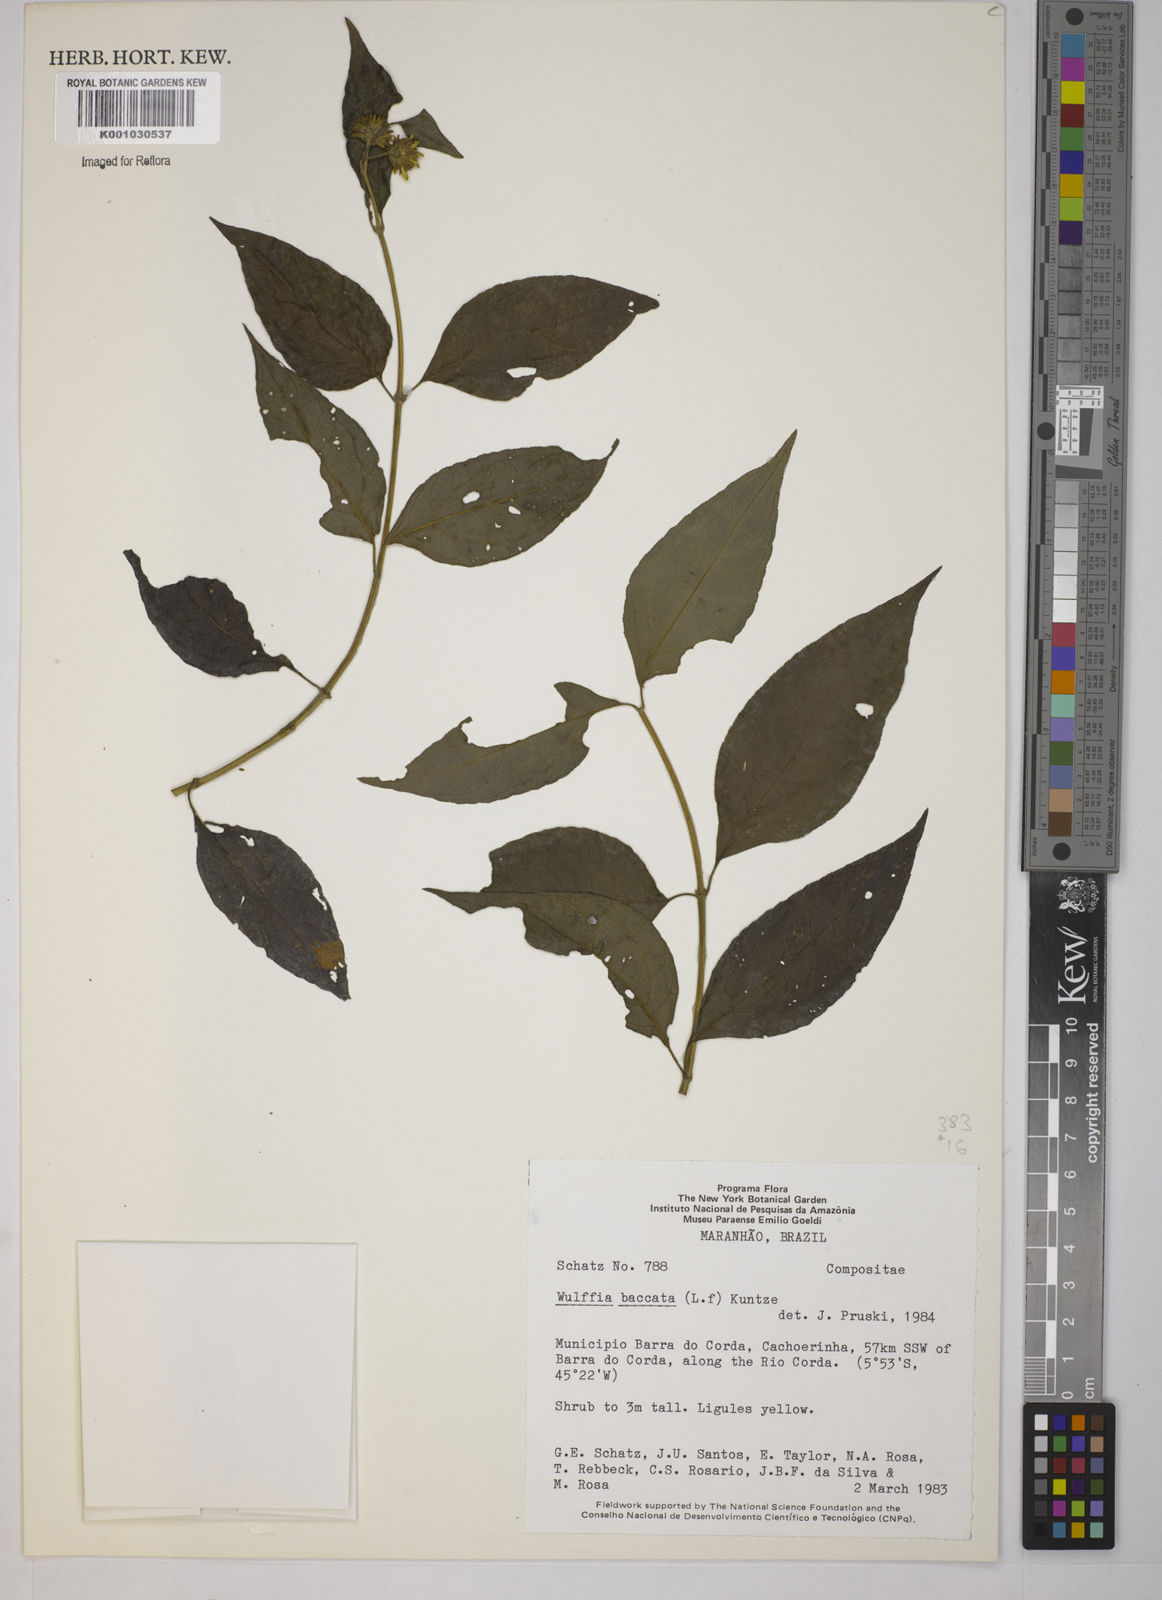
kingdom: Plantae
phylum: Tracheophyta
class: Magnoliopsida
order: Asterales
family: Asteraceae
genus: Tilesia
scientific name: Tilesia baccata
